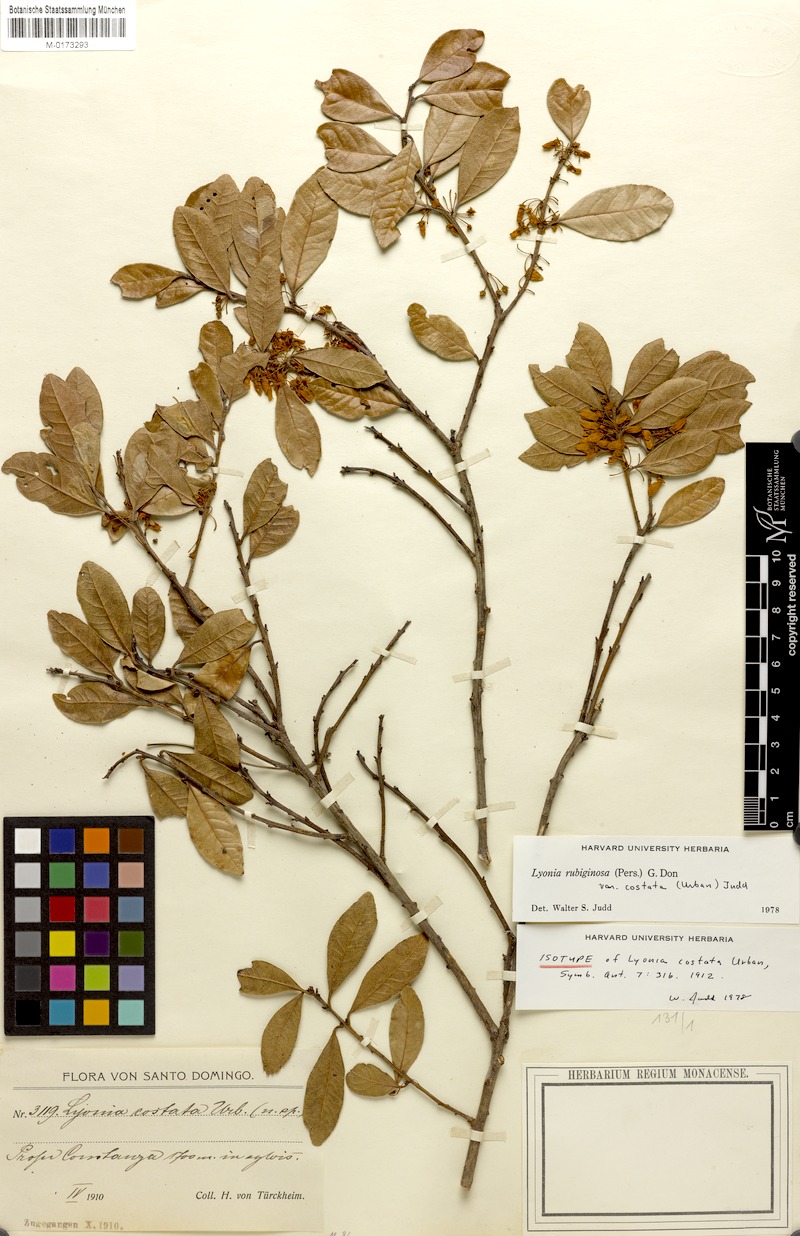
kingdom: Plantae
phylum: Tracheophyta
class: Magnoliopsida
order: Ericales
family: Ericaceae
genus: Lyonia
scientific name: Lyonia stahlii
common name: Stahl's staggerbush
